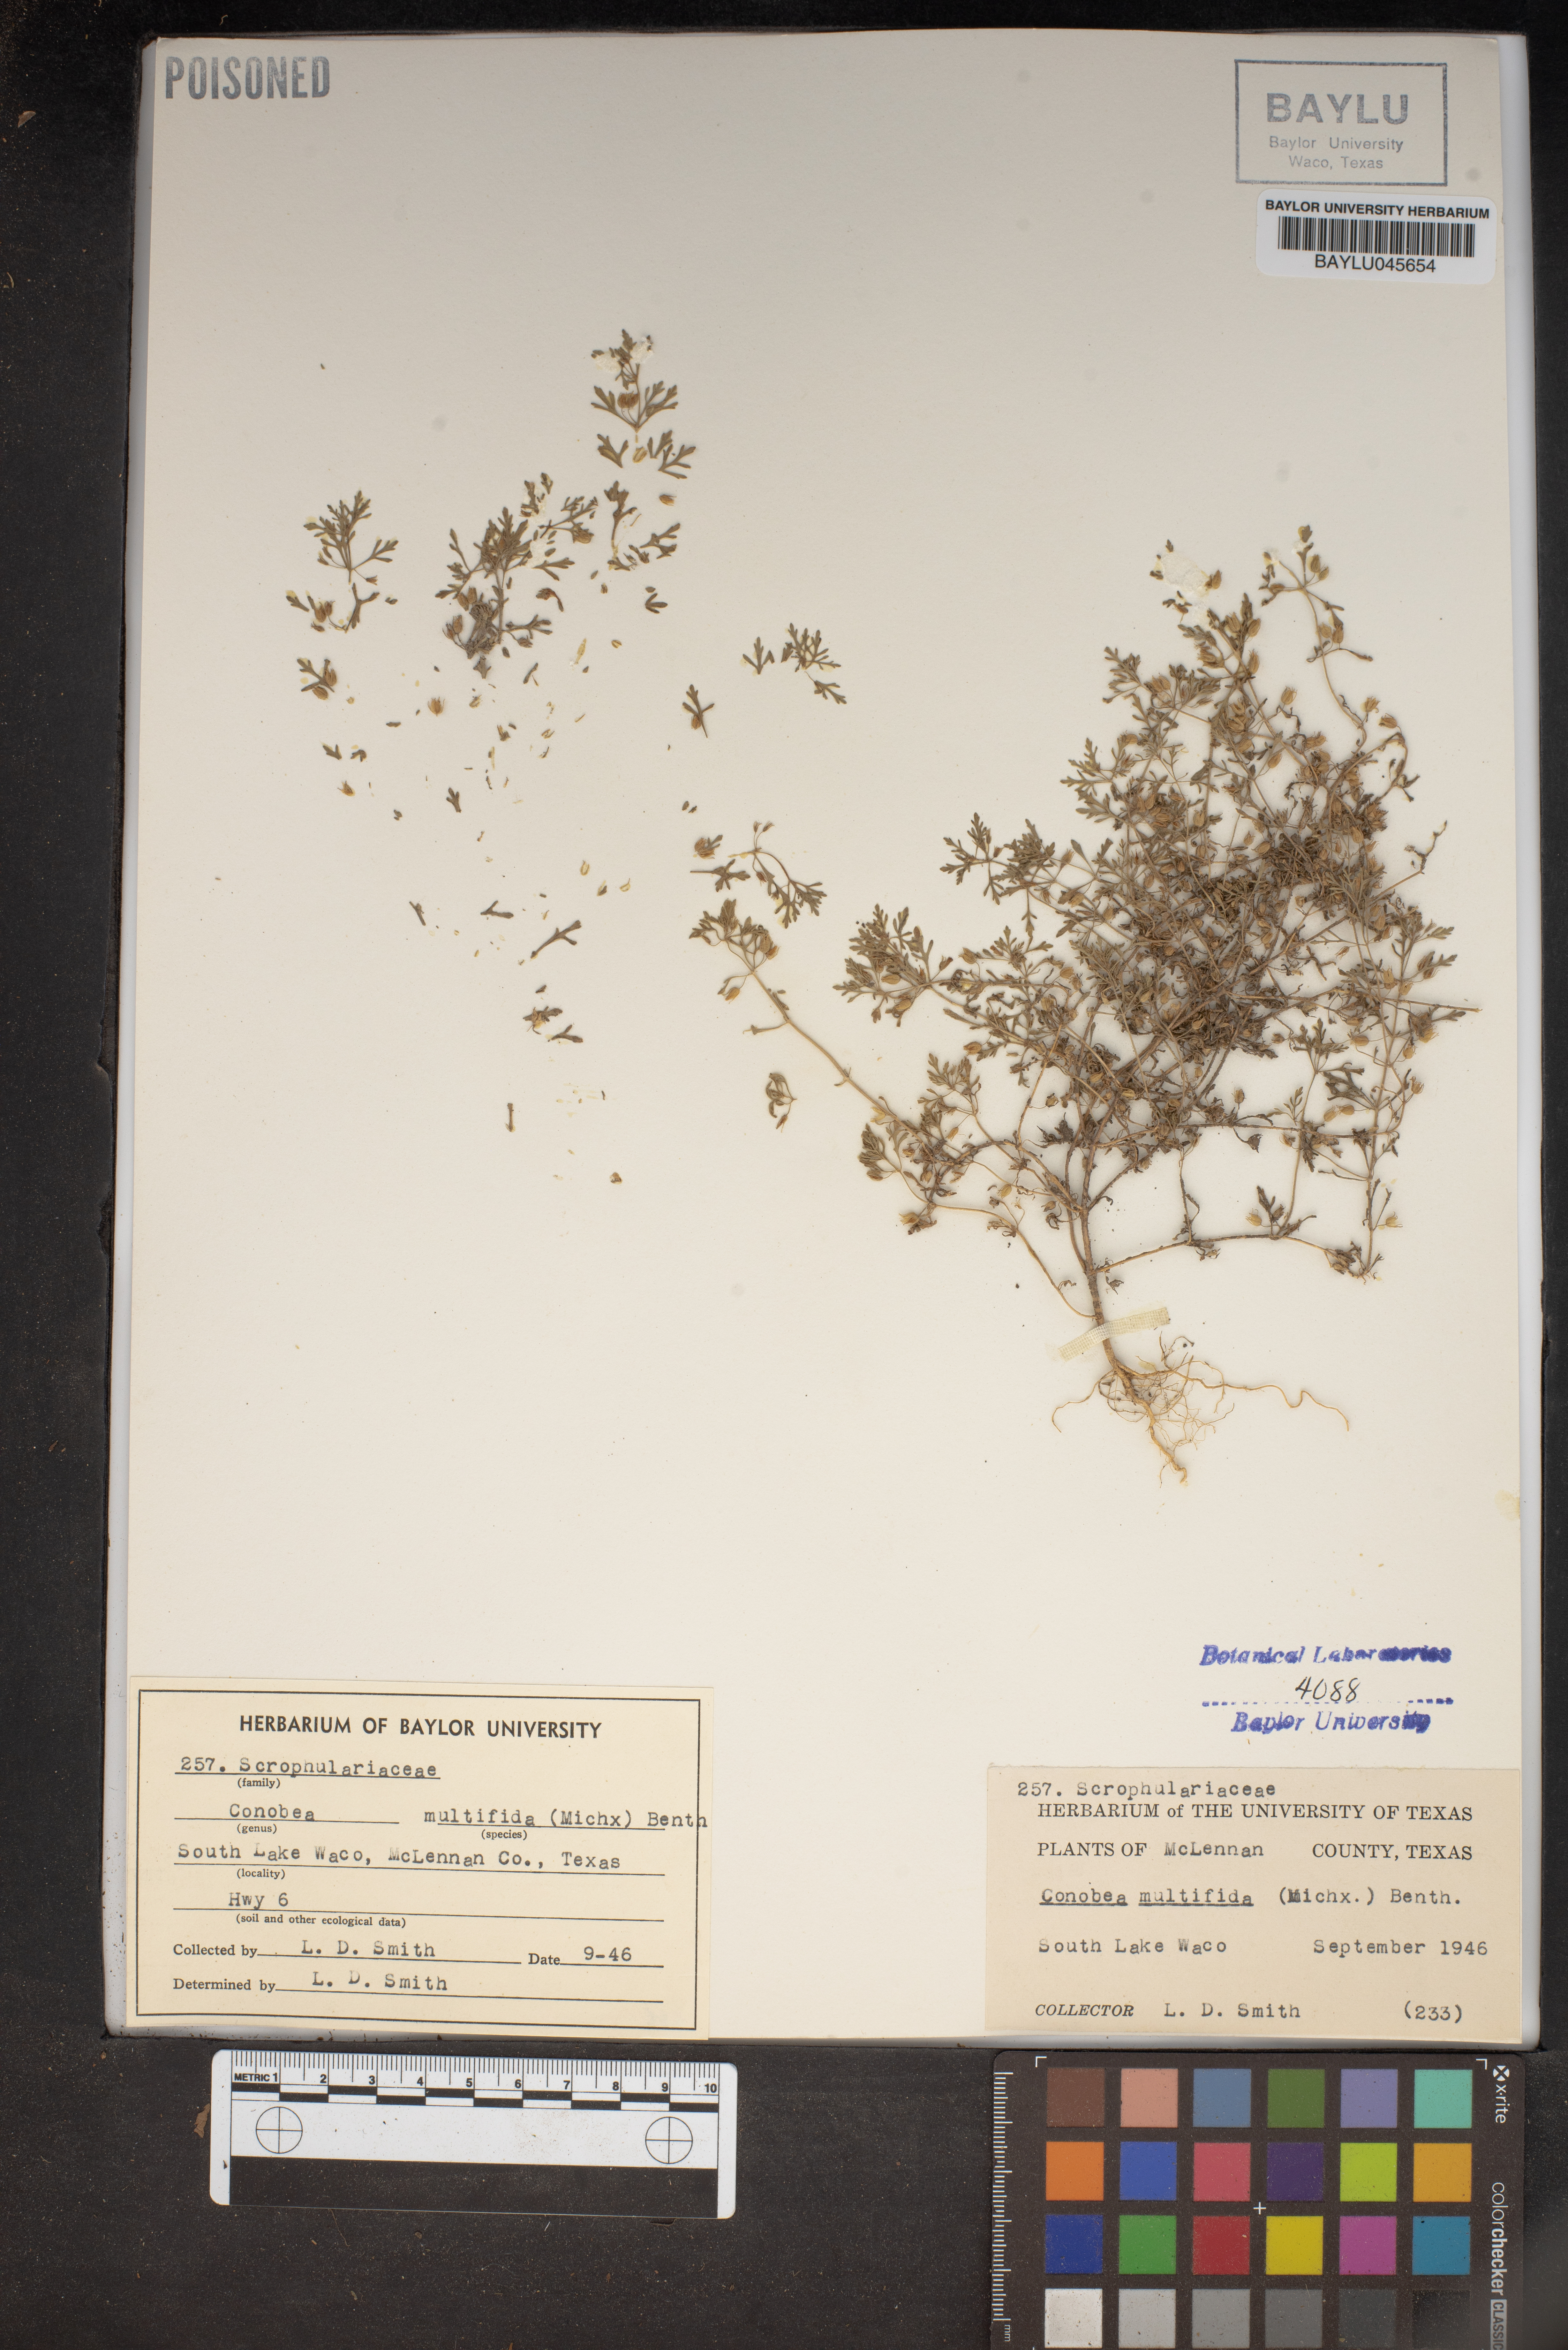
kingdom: Plantae
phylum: Tracheophyta
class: Magnoliopsida
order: Lamiales
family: Plantaginaceae
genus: Leucospora
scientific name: Leucospora multifida
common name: Narrow-leaf paleseed
